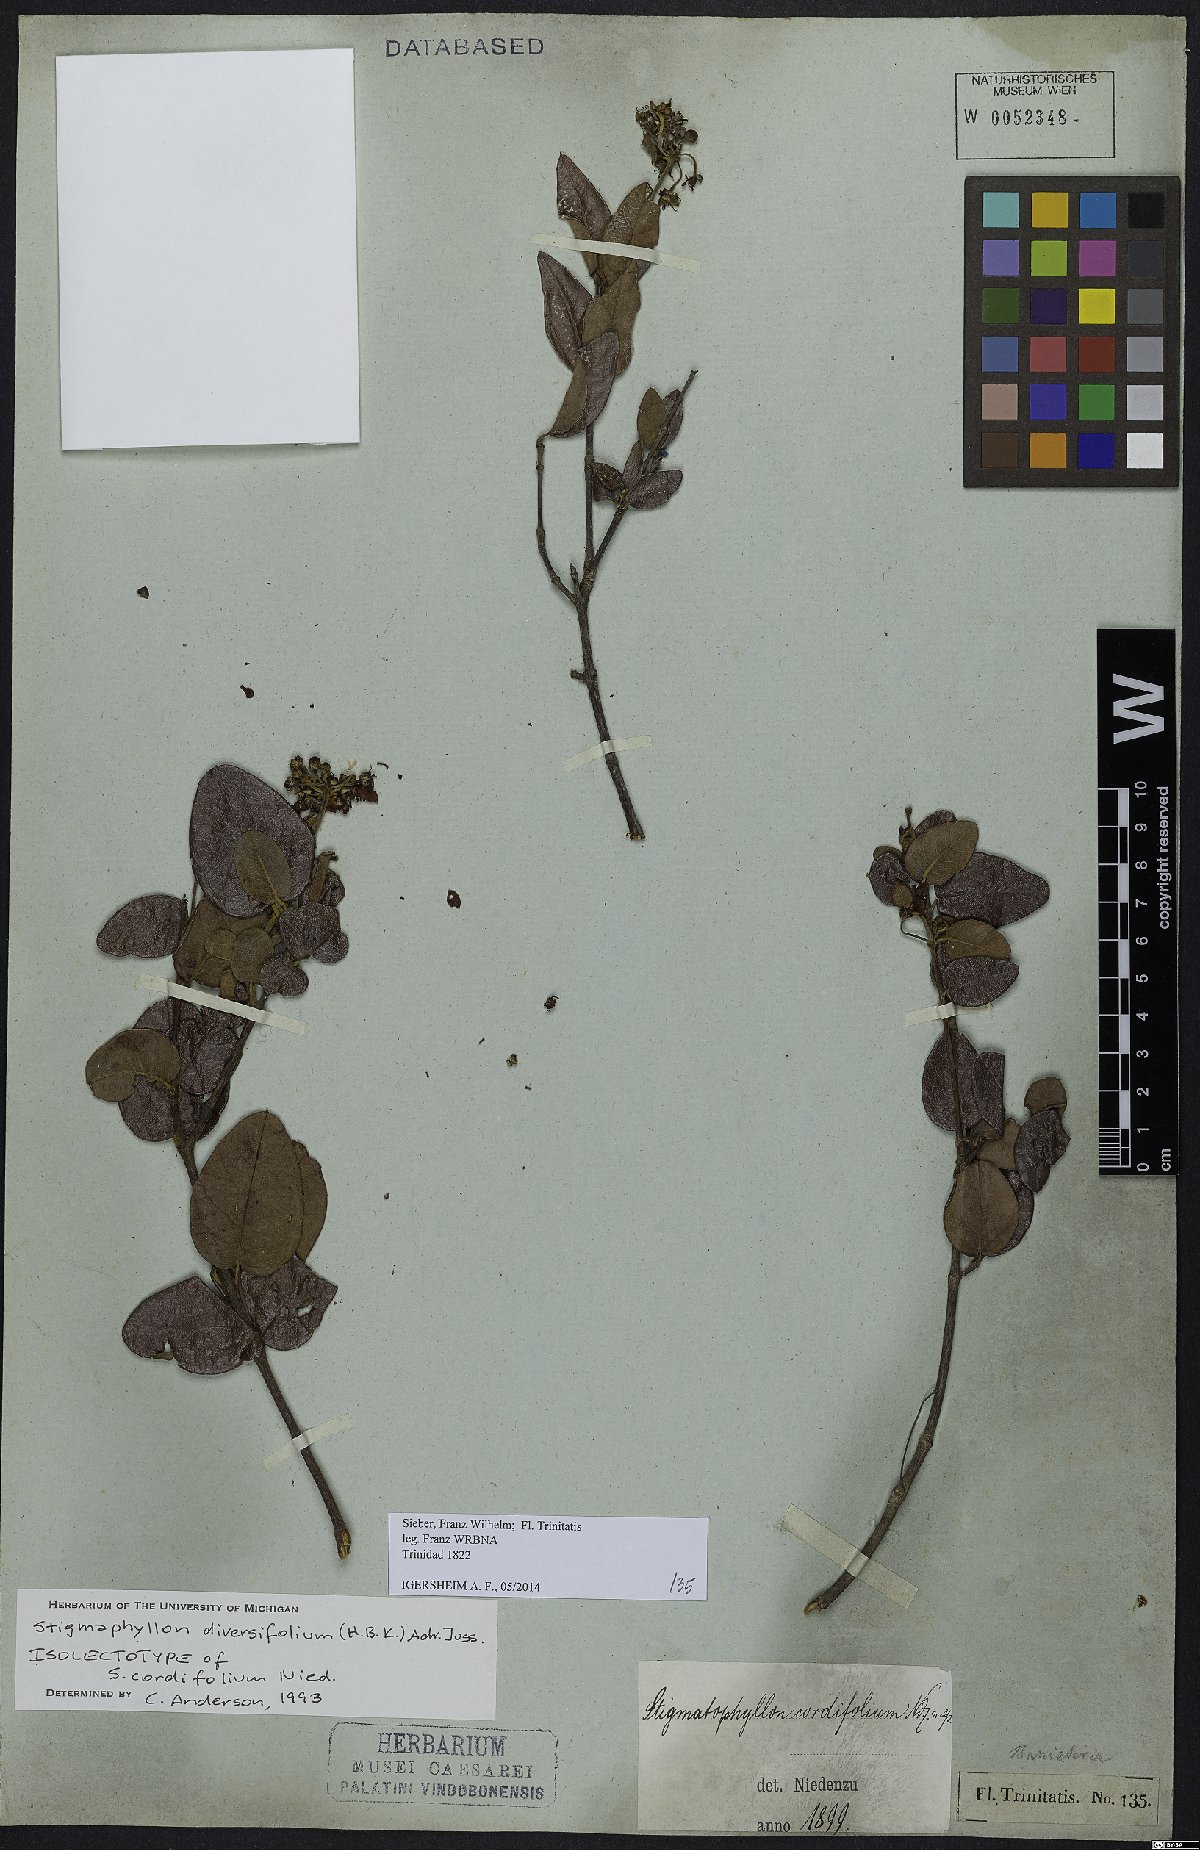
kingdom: Plantae
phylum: Tracheophyta
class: Magnoliopsida
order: Malpighiales
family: Malpighiaceae
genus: Stigmaphyllon
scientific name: Stigmaphyllon diversifolium
